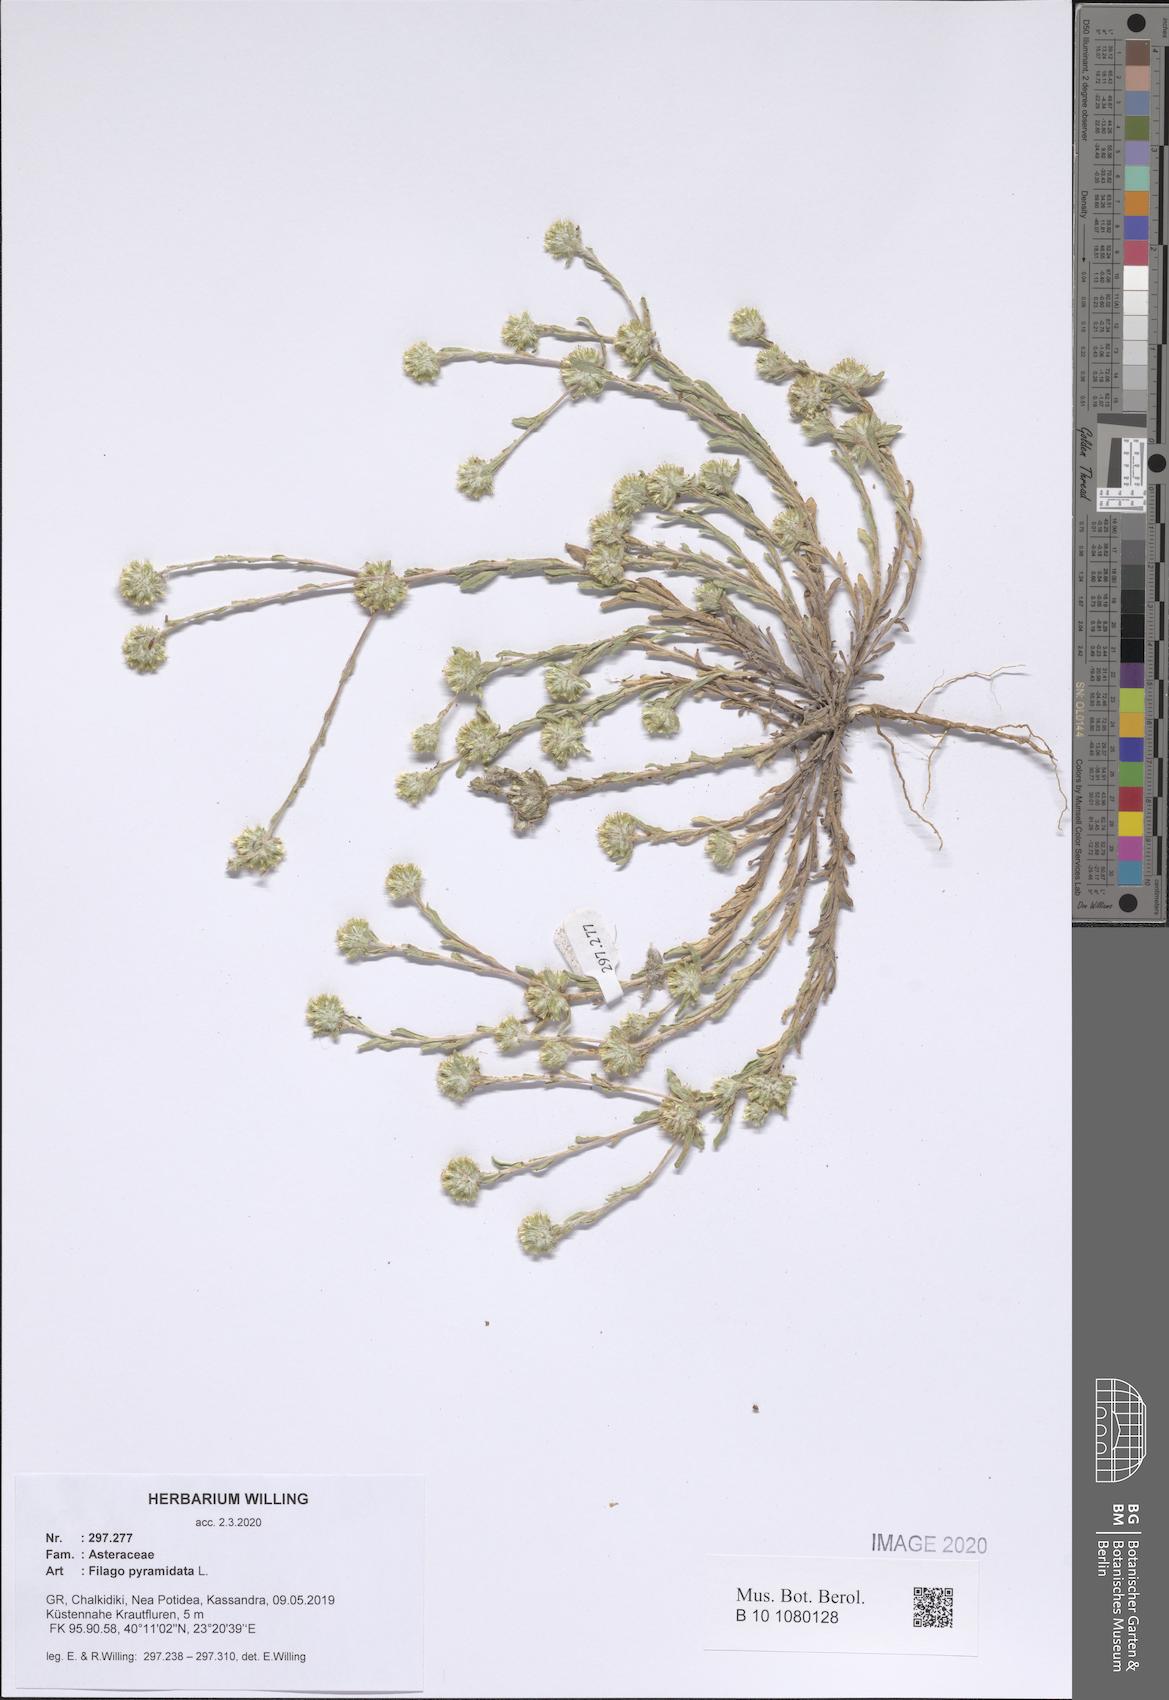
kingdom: Plantae
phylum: Tracheophyta
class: Magnoliopsida
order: Asterales
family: Asteraceae
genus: Filago
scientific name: Filago pyramidata
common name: Broad-leaved cudweed
